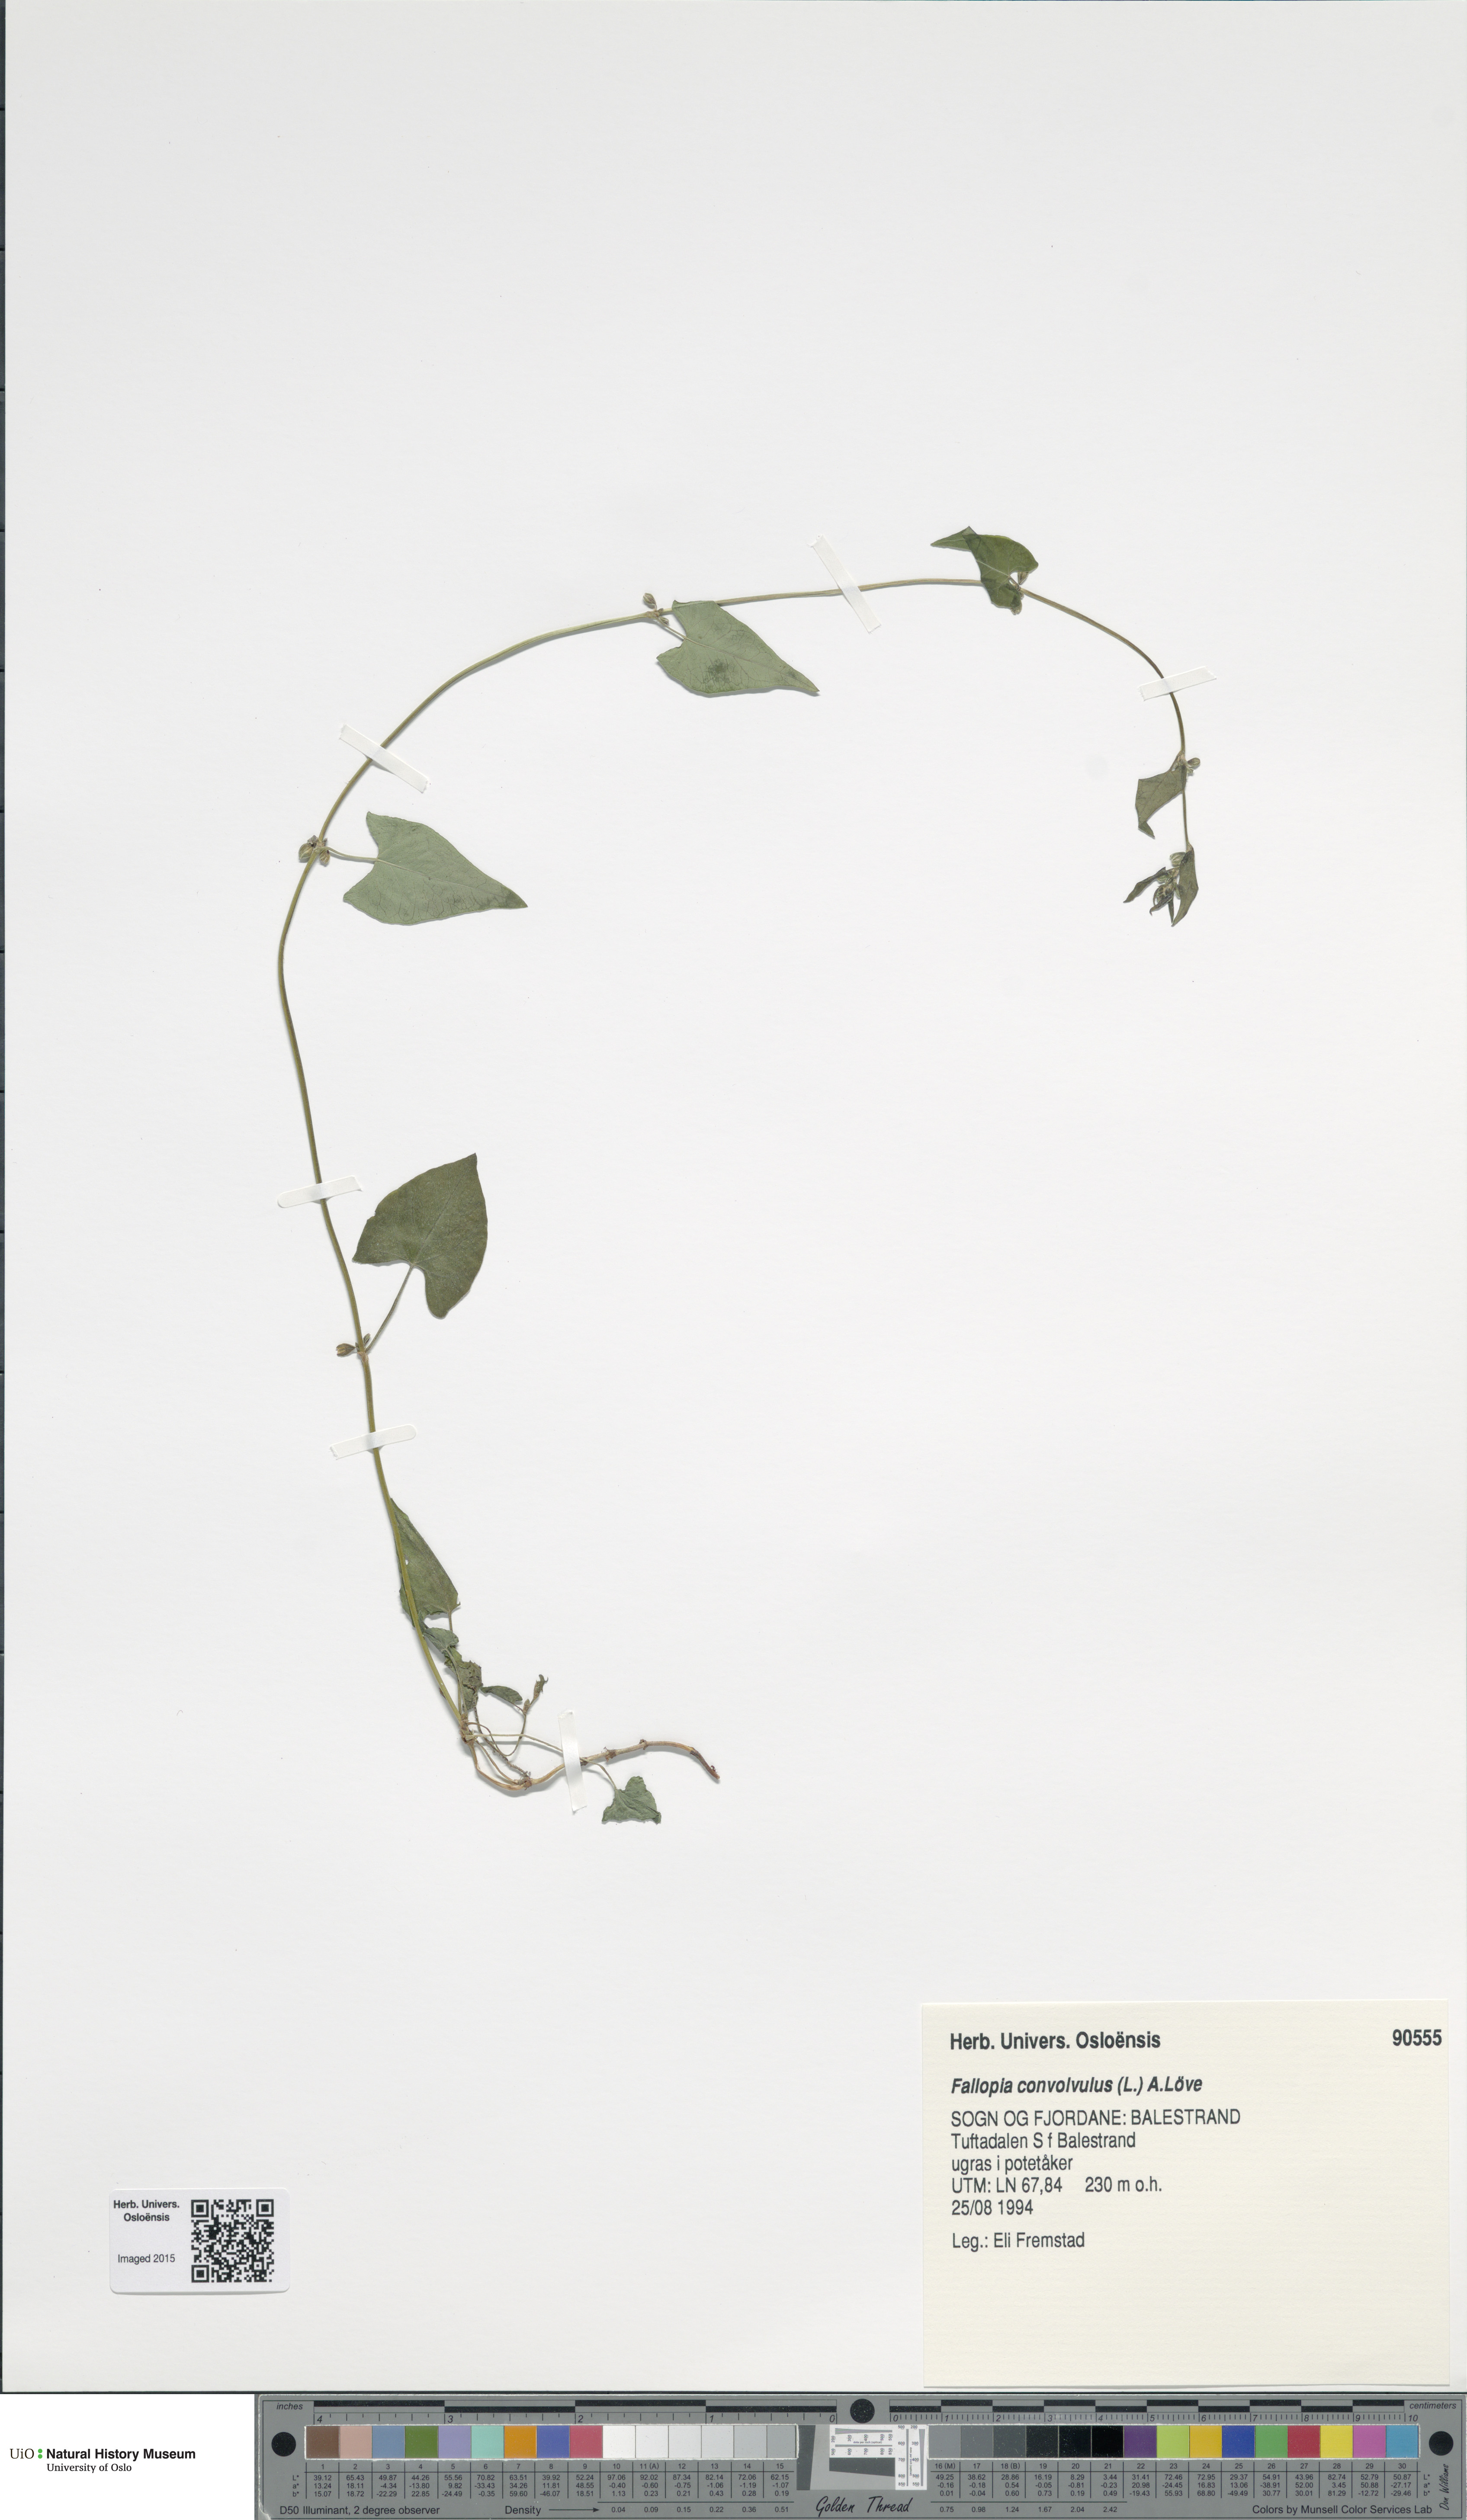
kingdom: Plantae
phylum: Tracheophyta
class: Magnoliopsida
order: Caryophyllales
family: Polygonaceae
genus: Fallopia
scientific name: Fallopia convolvulus
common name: Black bindweed
